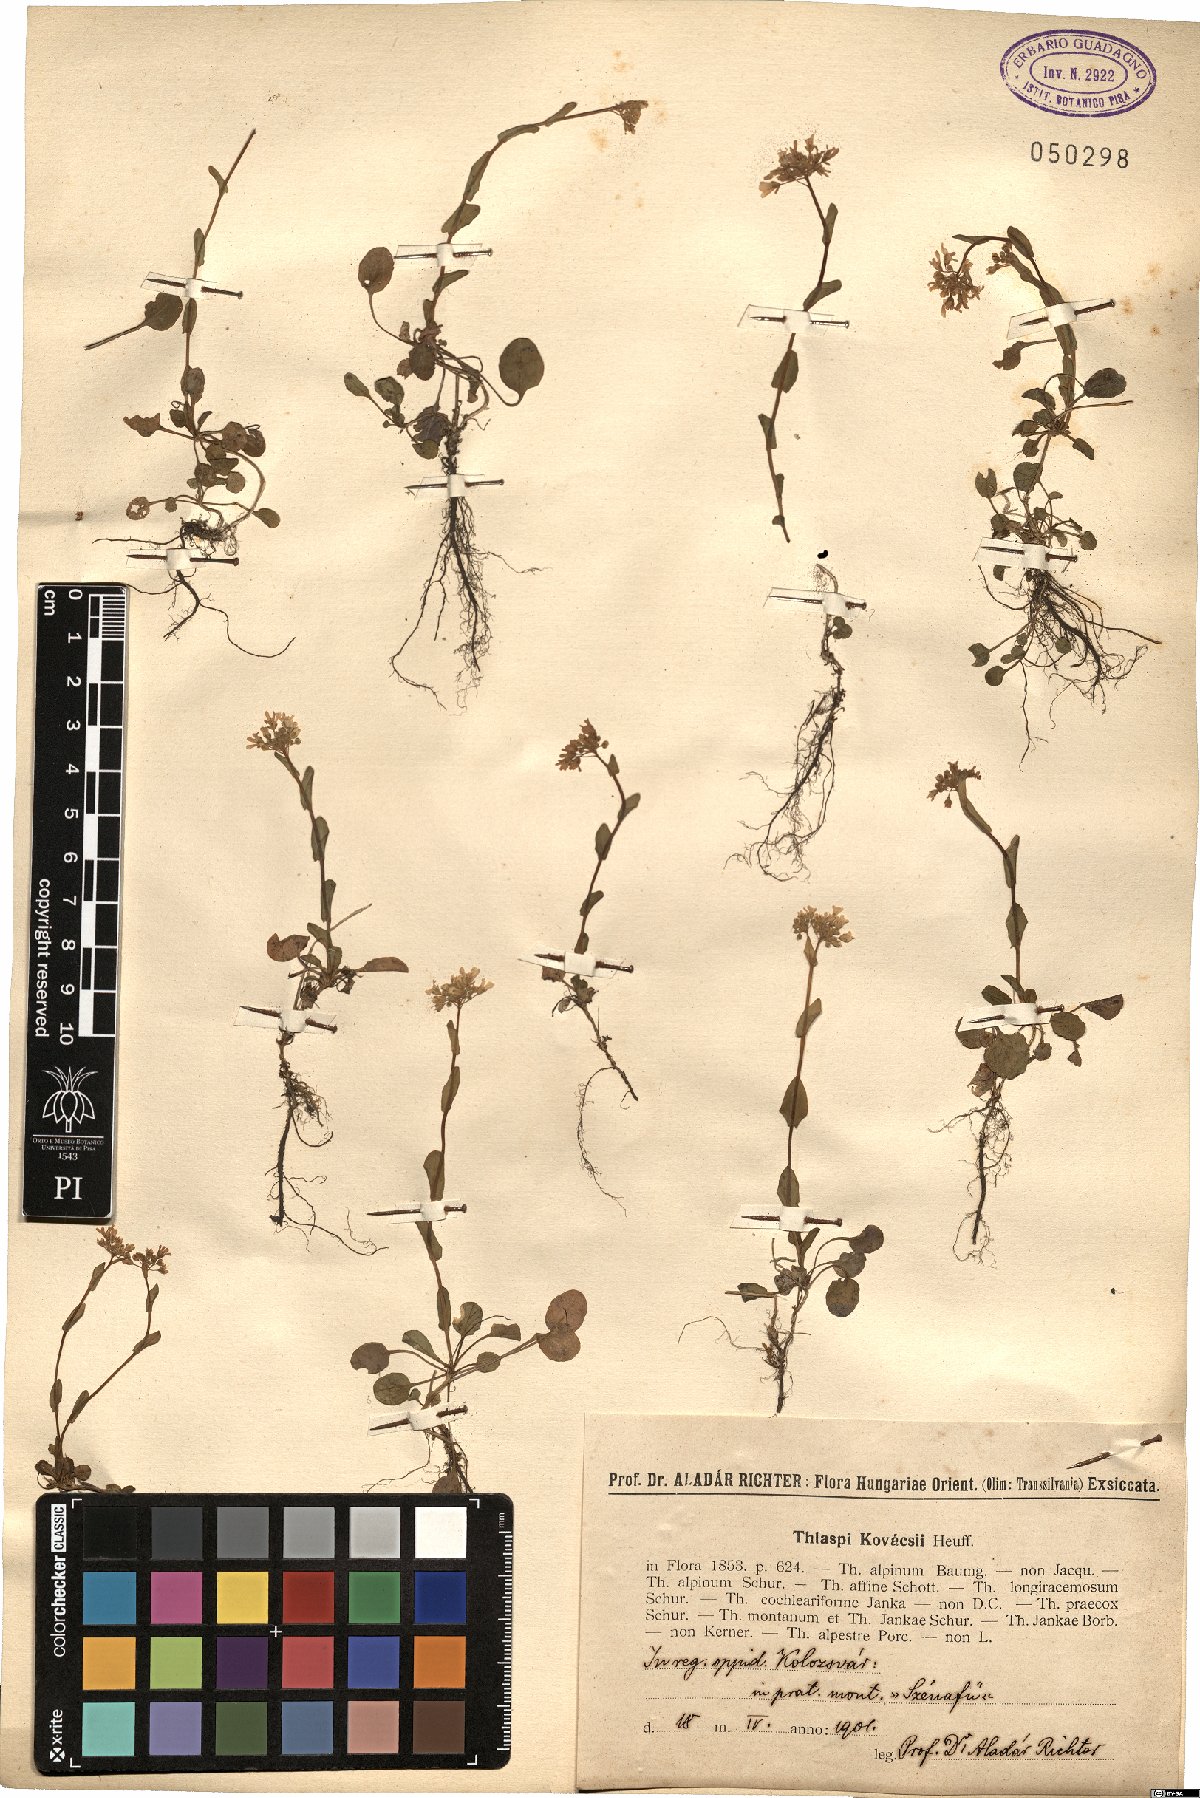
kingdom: Plantae
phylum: Tracheophyta
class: Magnoliopsida
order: Brassicales
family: Brassicaceae
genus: Noccaea
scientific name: Noccaea kovatsii
